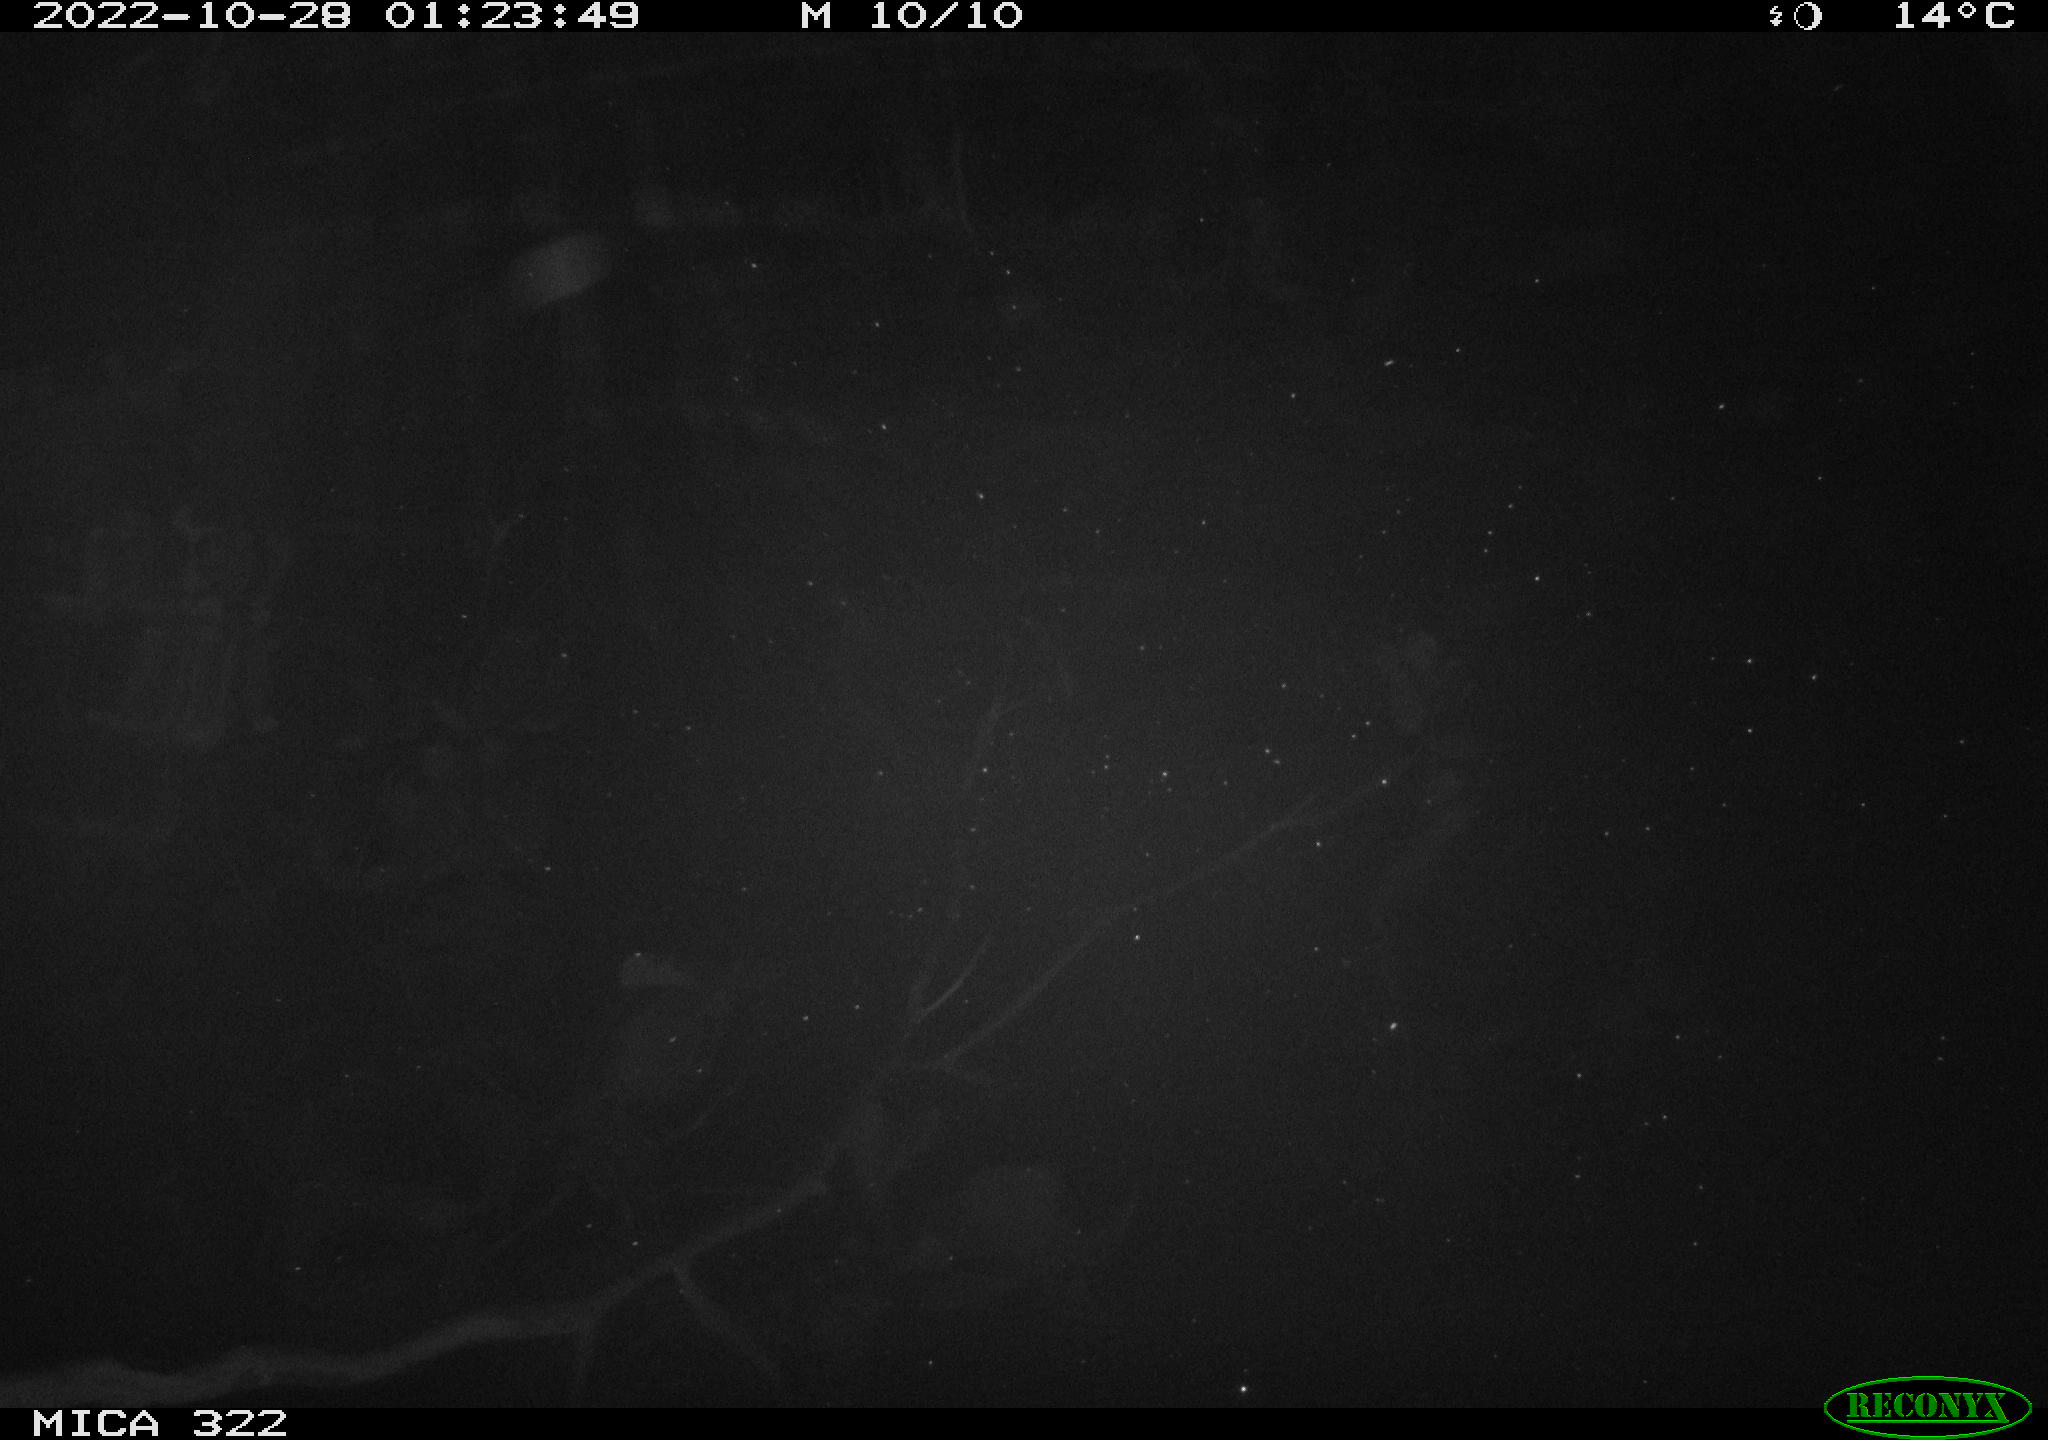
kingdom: Animalia
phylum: Chordata
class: Mammalia
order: Rodentia
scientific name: Rodentia
